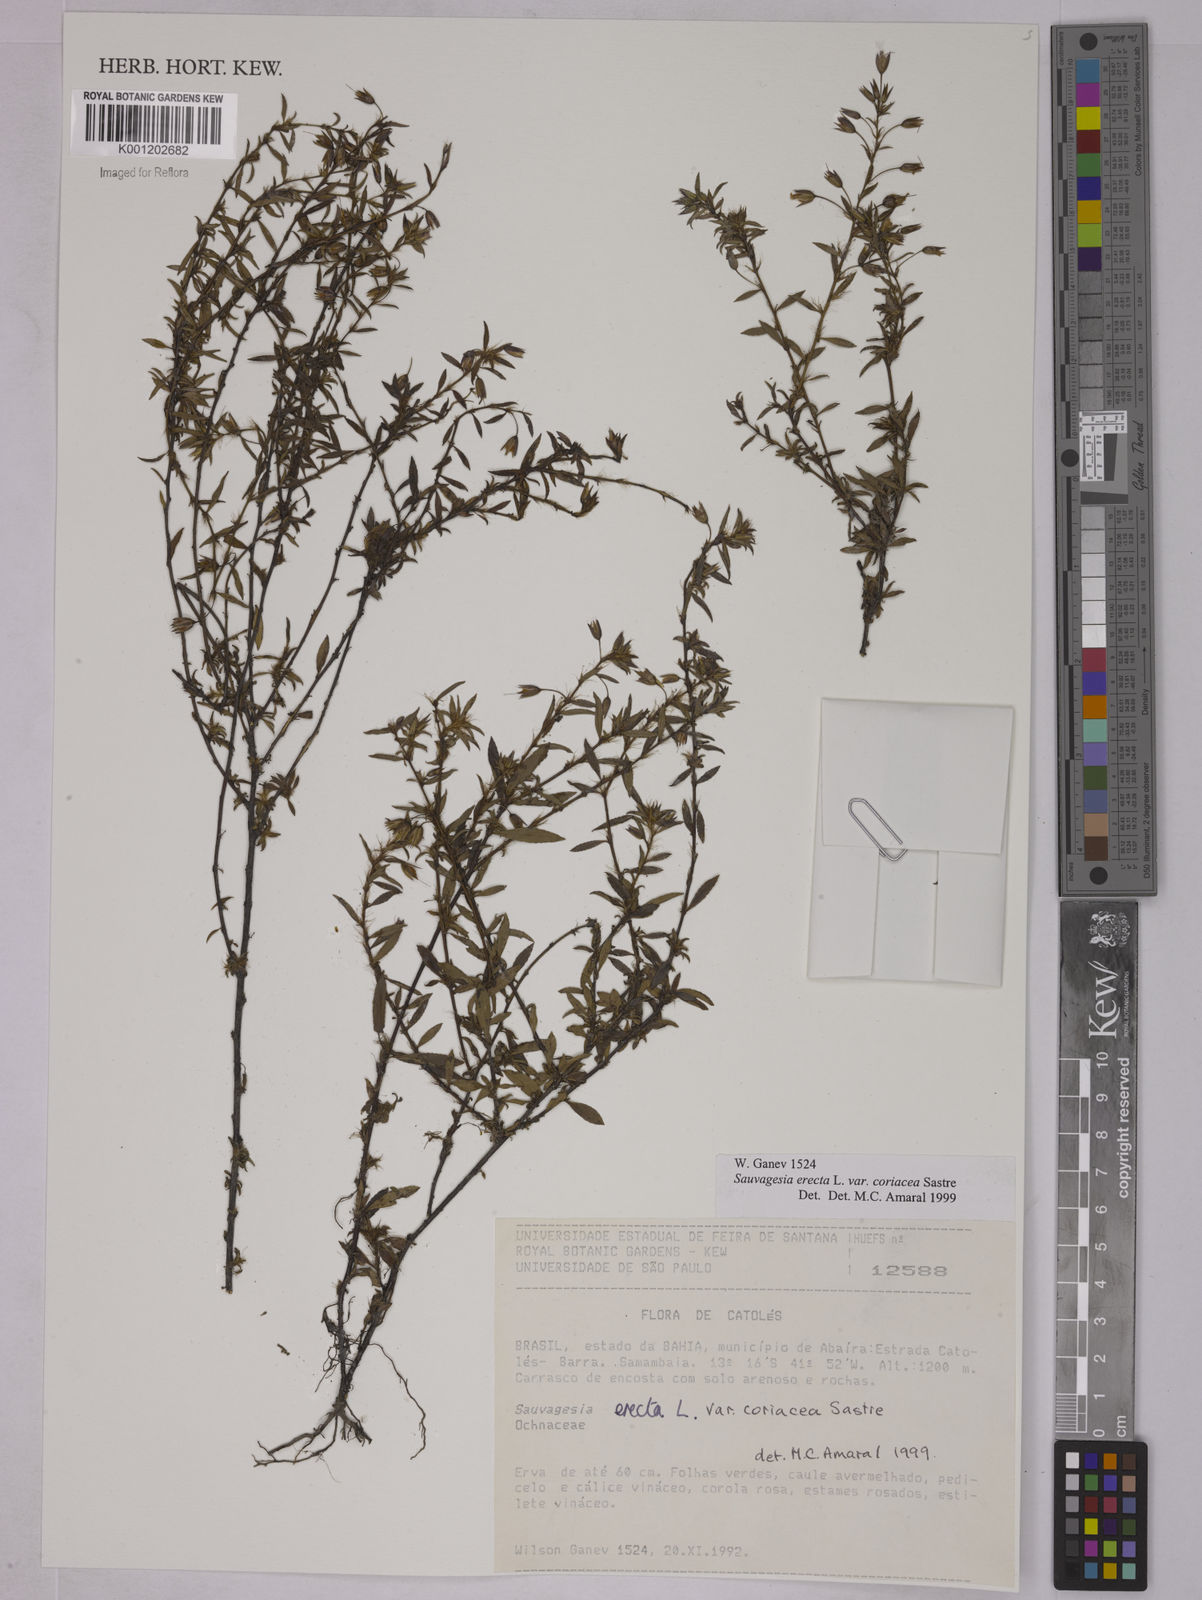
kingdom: Plantae
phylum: Tracheophyta
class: Magnoliopsida
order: Malpighiales
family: Ochnaceae
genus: Sauvagesia
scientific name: Sauvagesia erecta
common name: Creole tea
